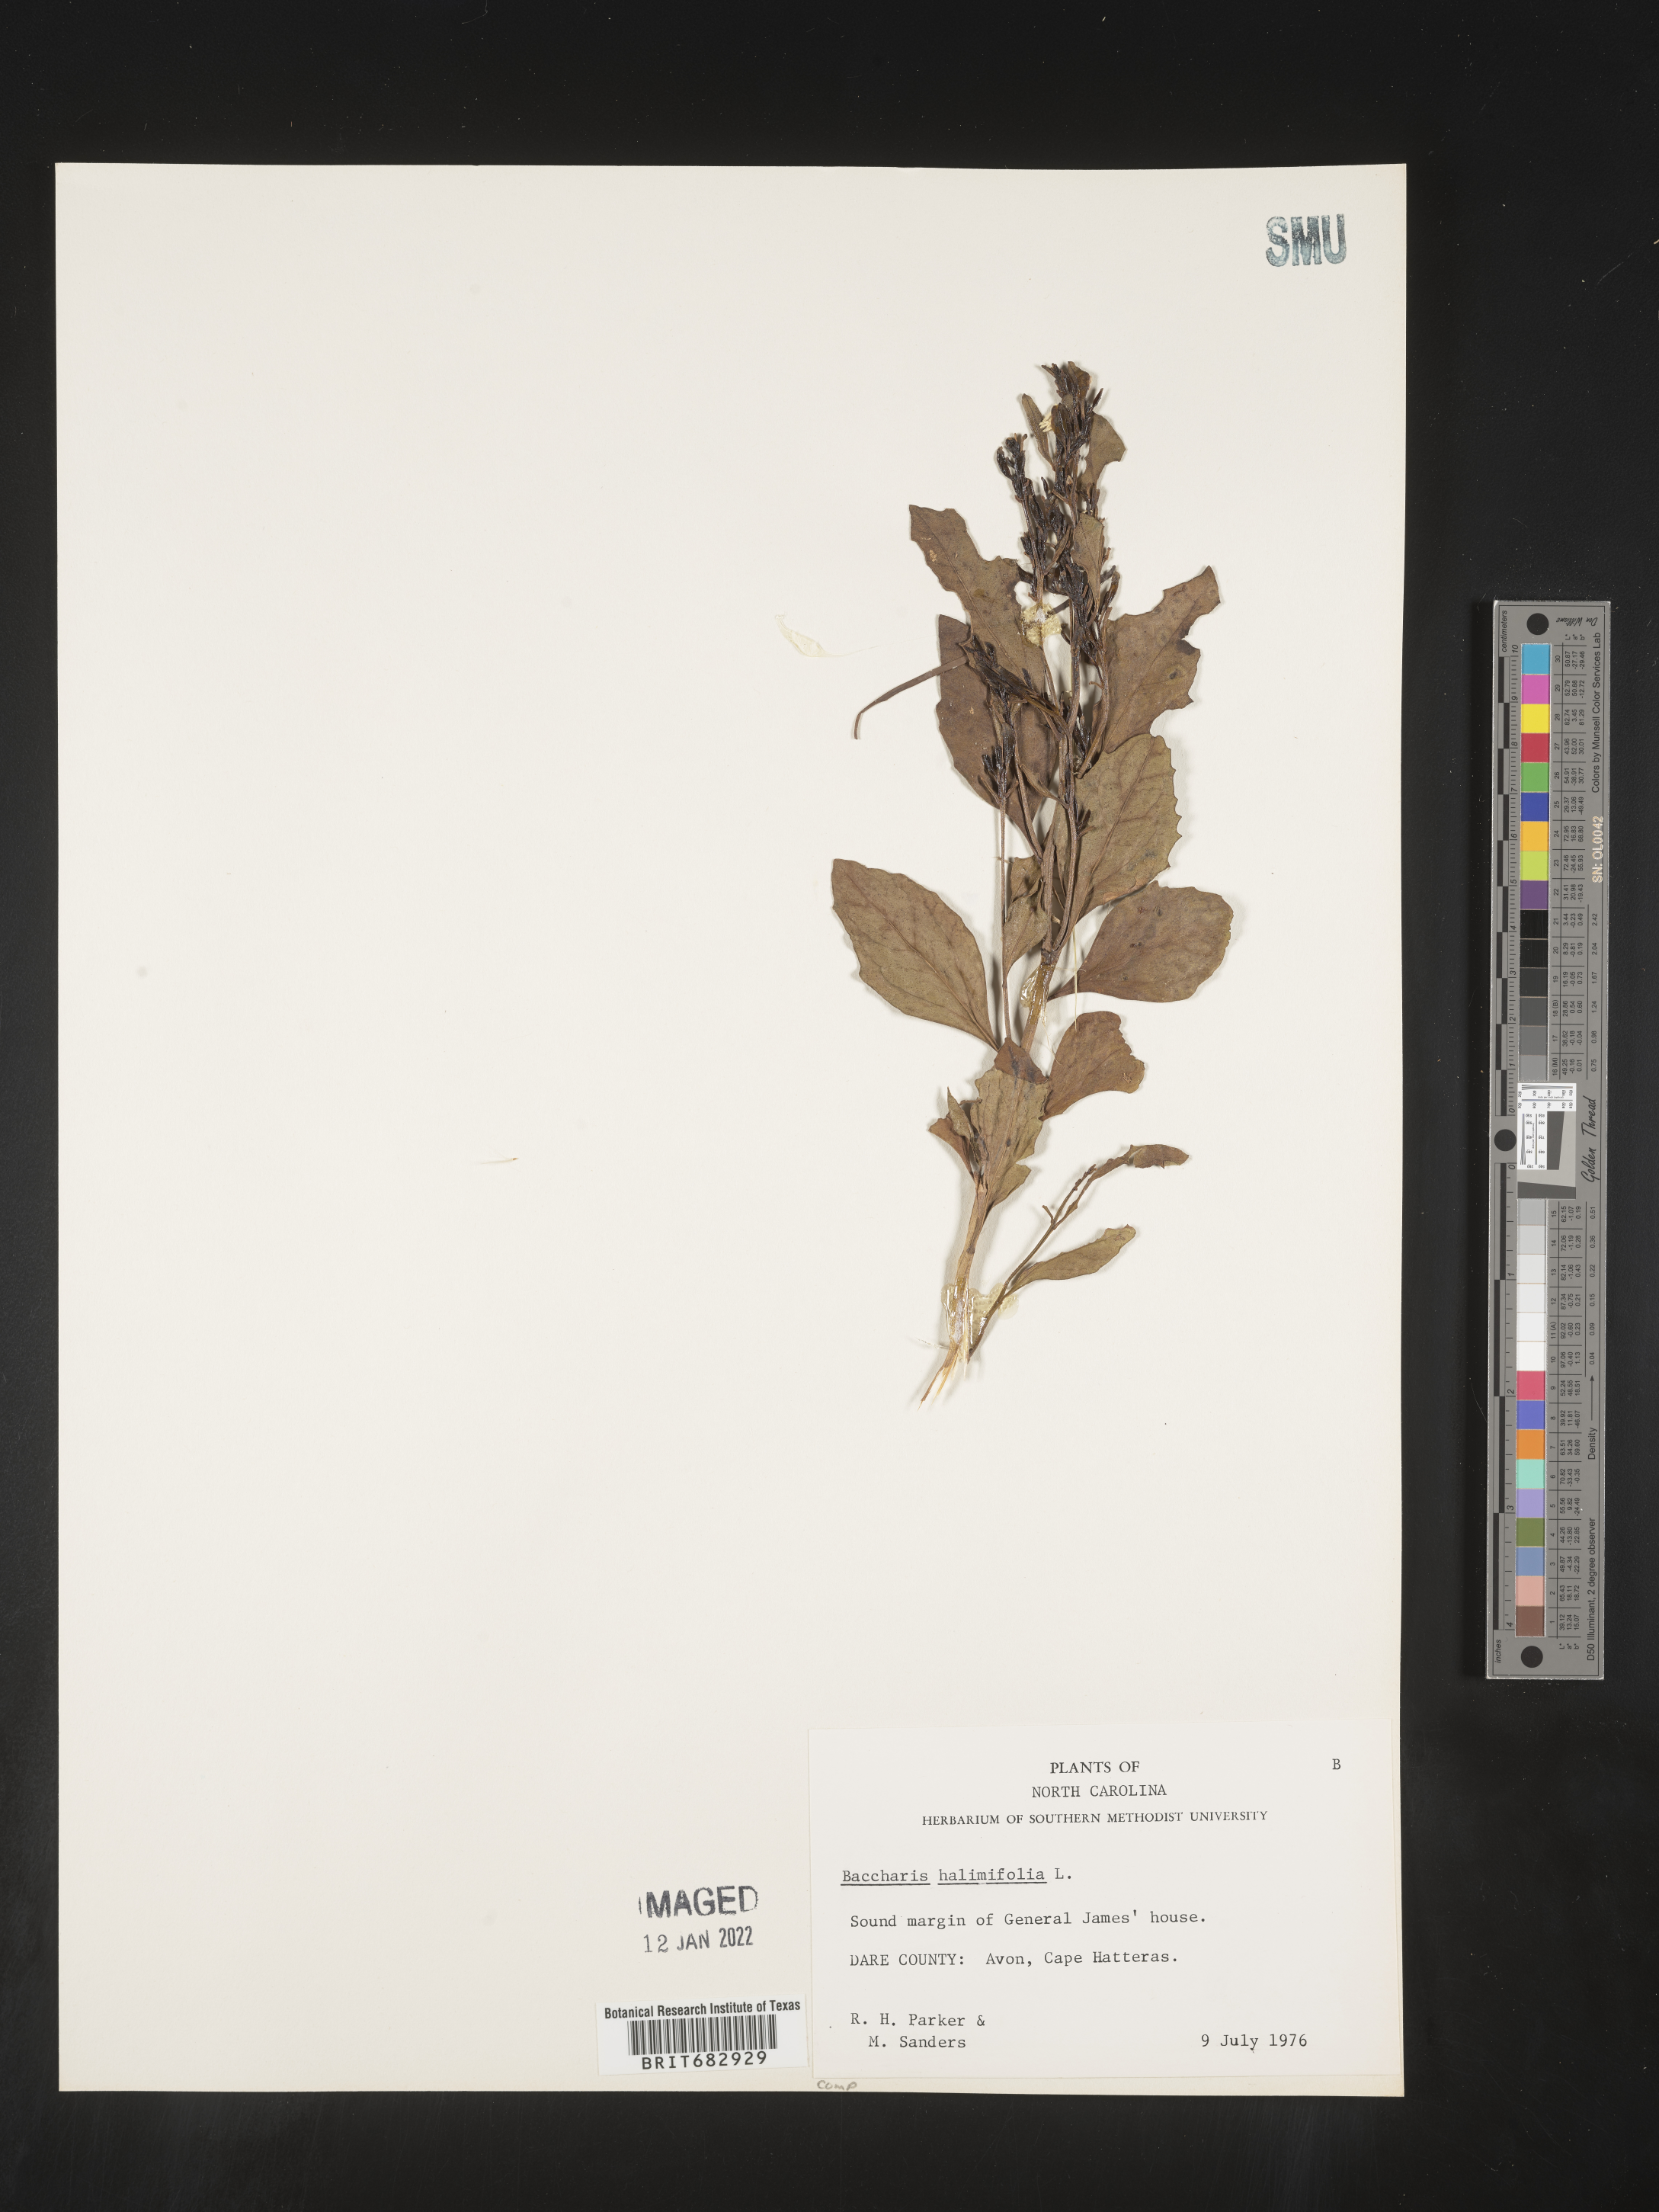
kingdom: Plantae
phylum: Tracheophyta
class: Magnoliopsida
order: Asterales
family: Asteraceae
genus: Nidorella
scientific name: Nidorella ivifolia
